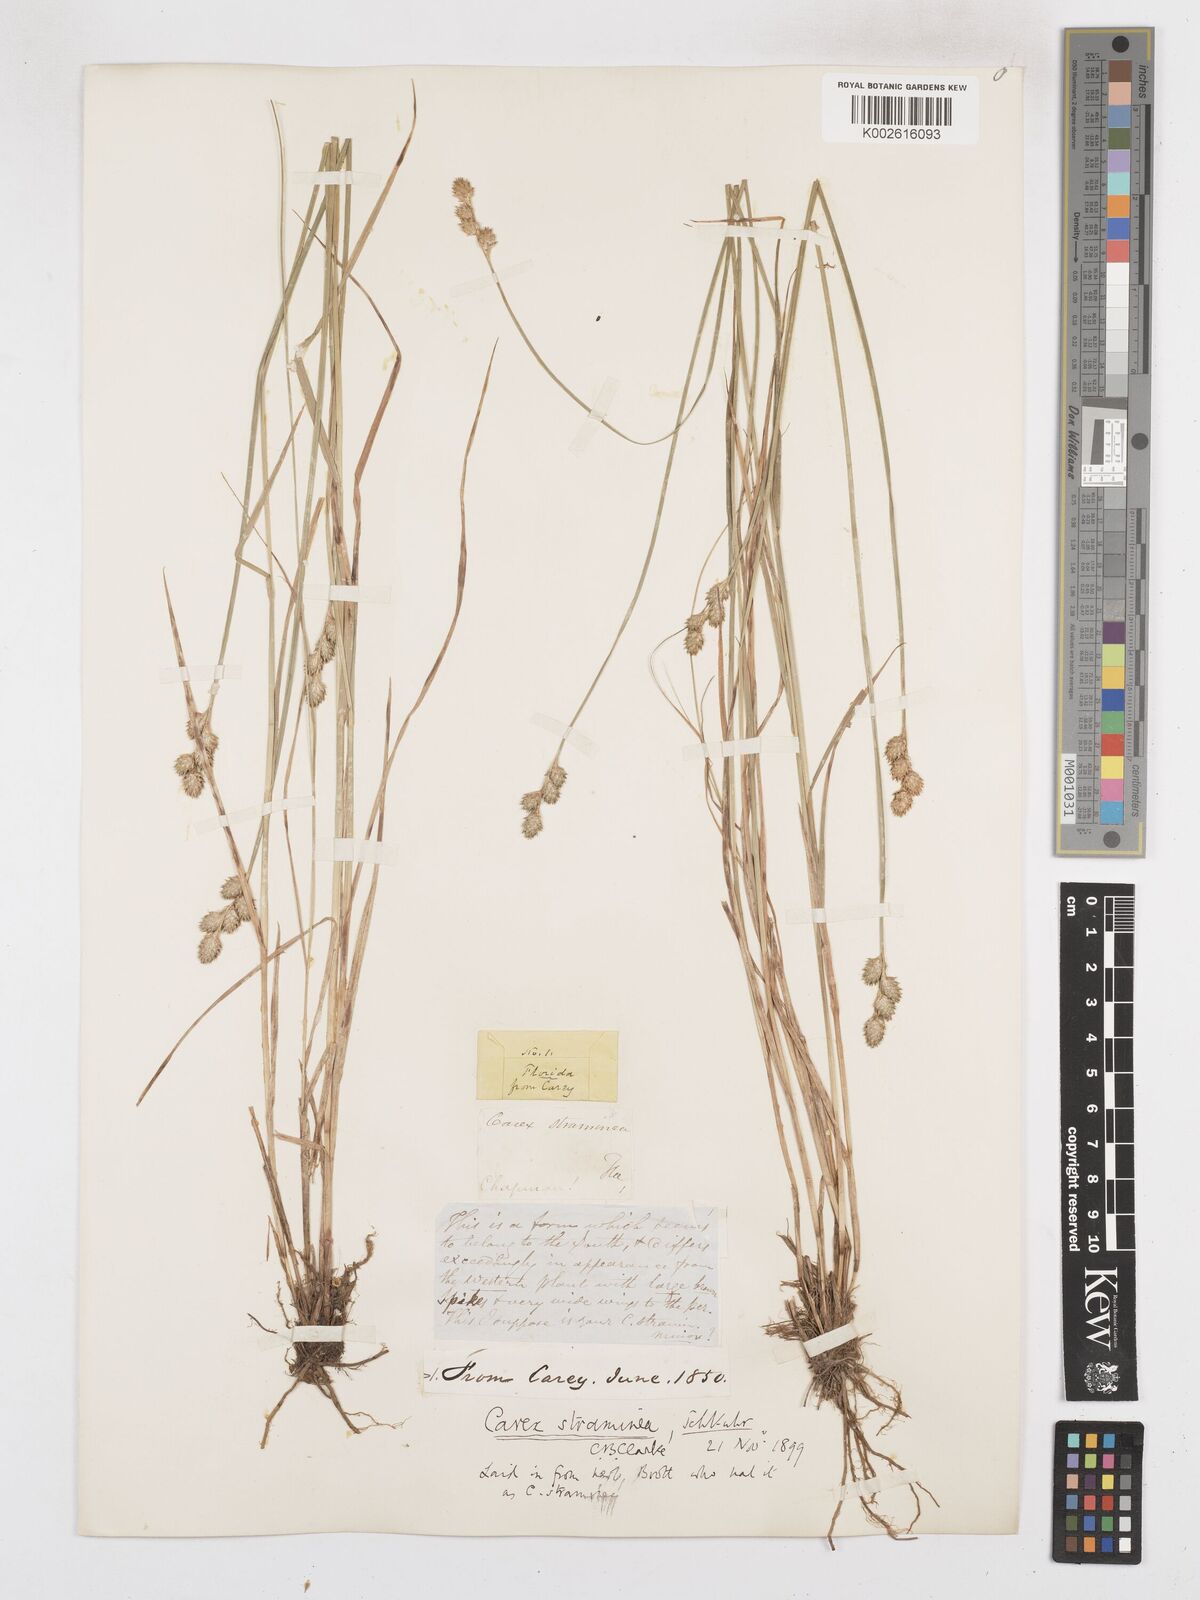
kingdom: Plantae
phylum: Tracheophyta
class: Liliopsida
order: Poales
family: Cyperaceae
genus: Carex
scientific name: Carex brevior
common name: Brevior sedge
